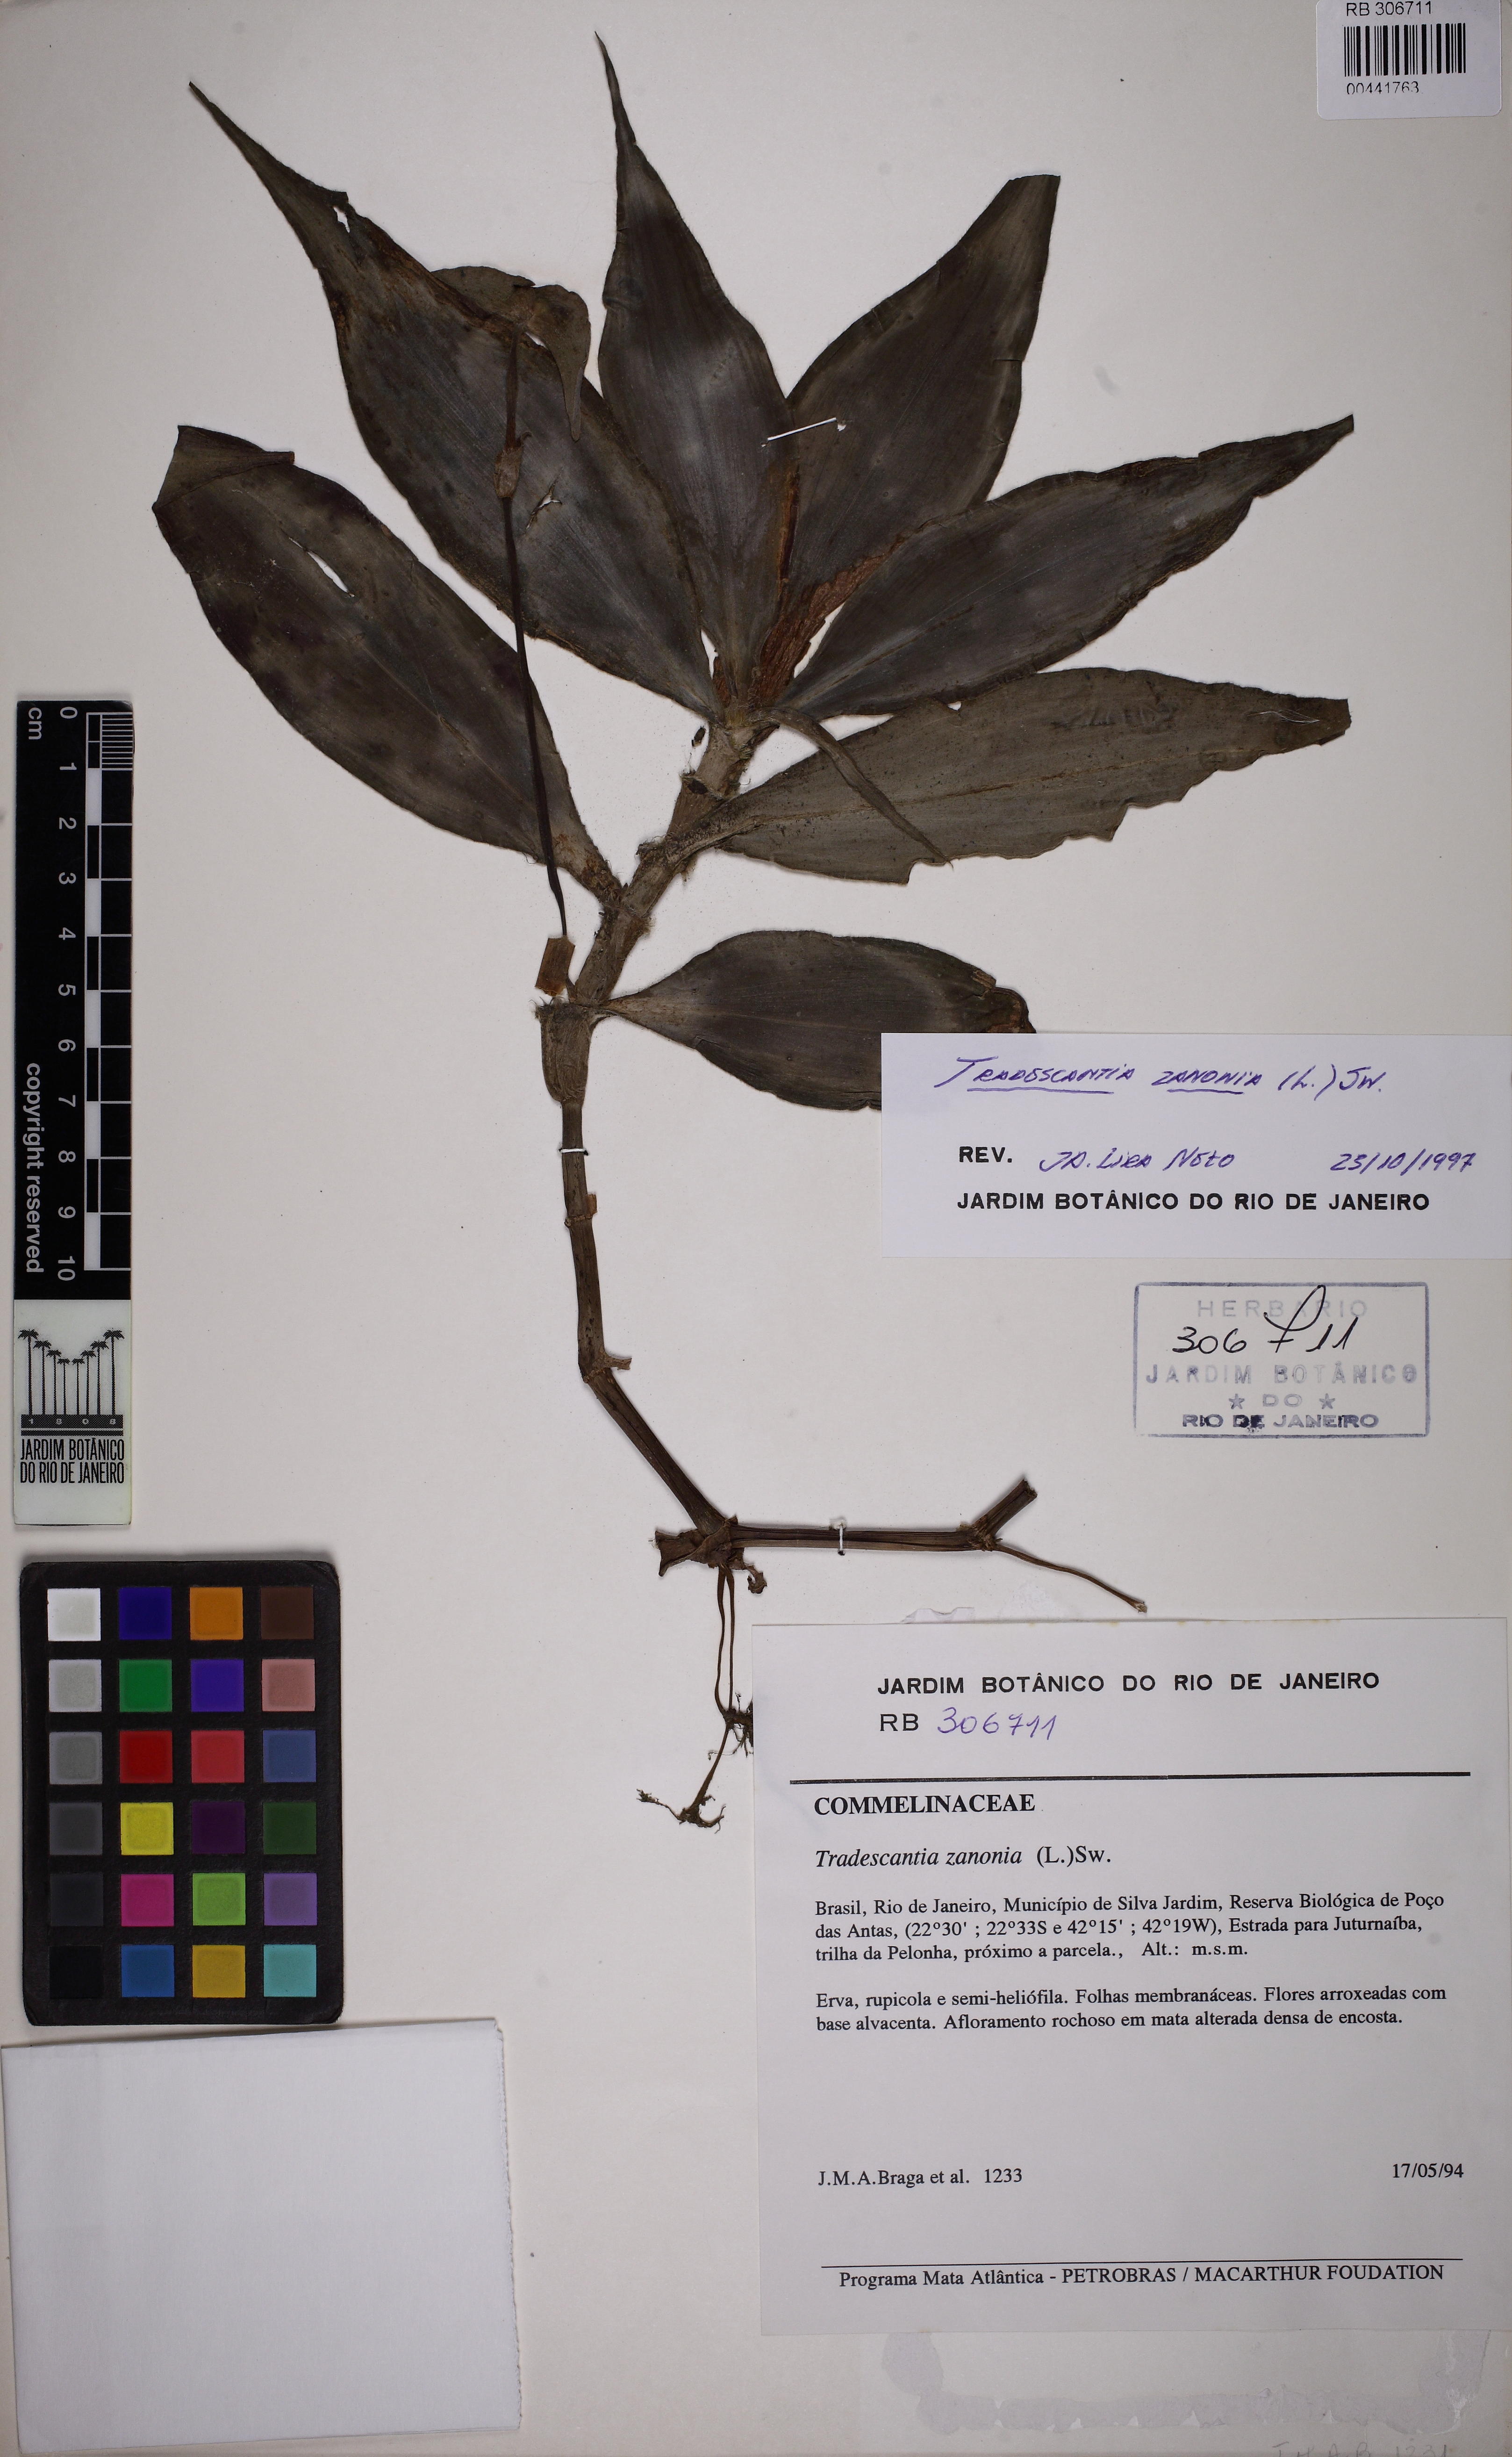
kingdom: Plantae
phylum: Tracheophyta
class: Liliopsida
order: Commelinales
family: Commelinaceae
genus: Tradescantia
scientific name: Tradescantia zanonia
